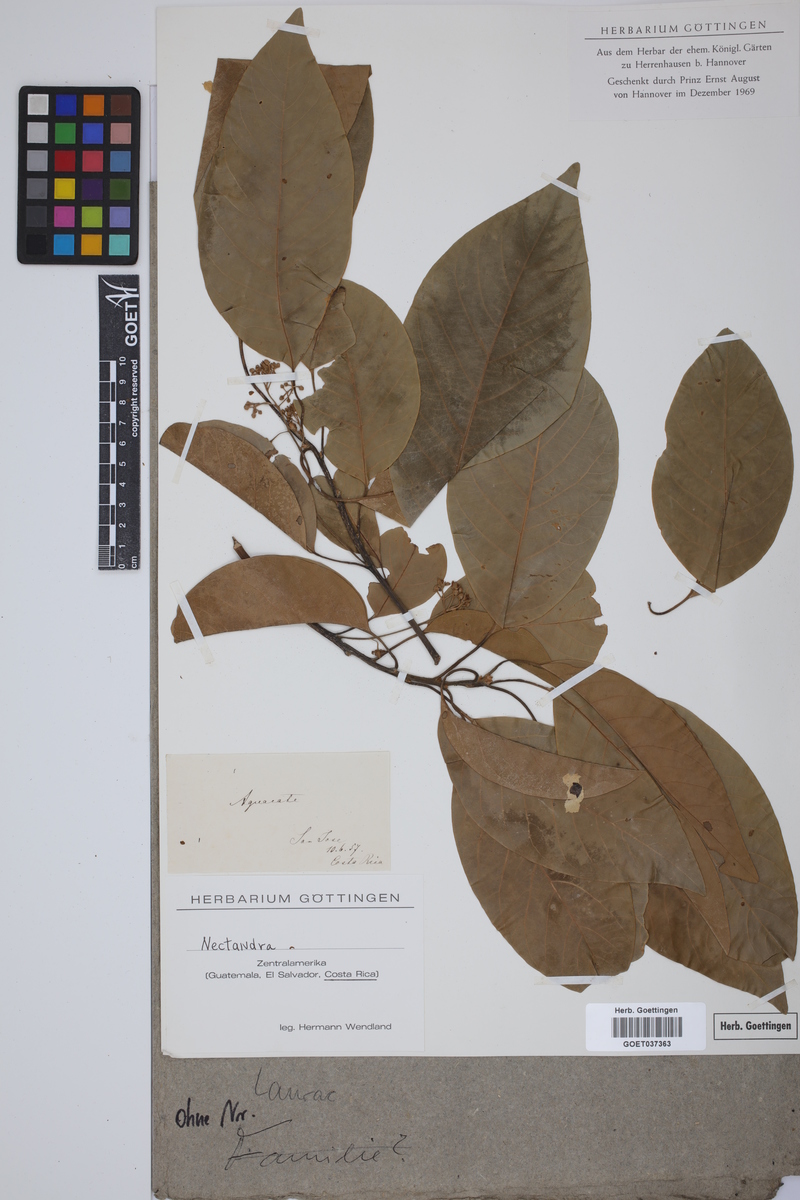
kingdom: Plantae
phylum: Tracheophyta
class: Magnoliopsida
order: Laurales
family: Lauraceae
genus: Nectandra
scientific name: Nectandra
